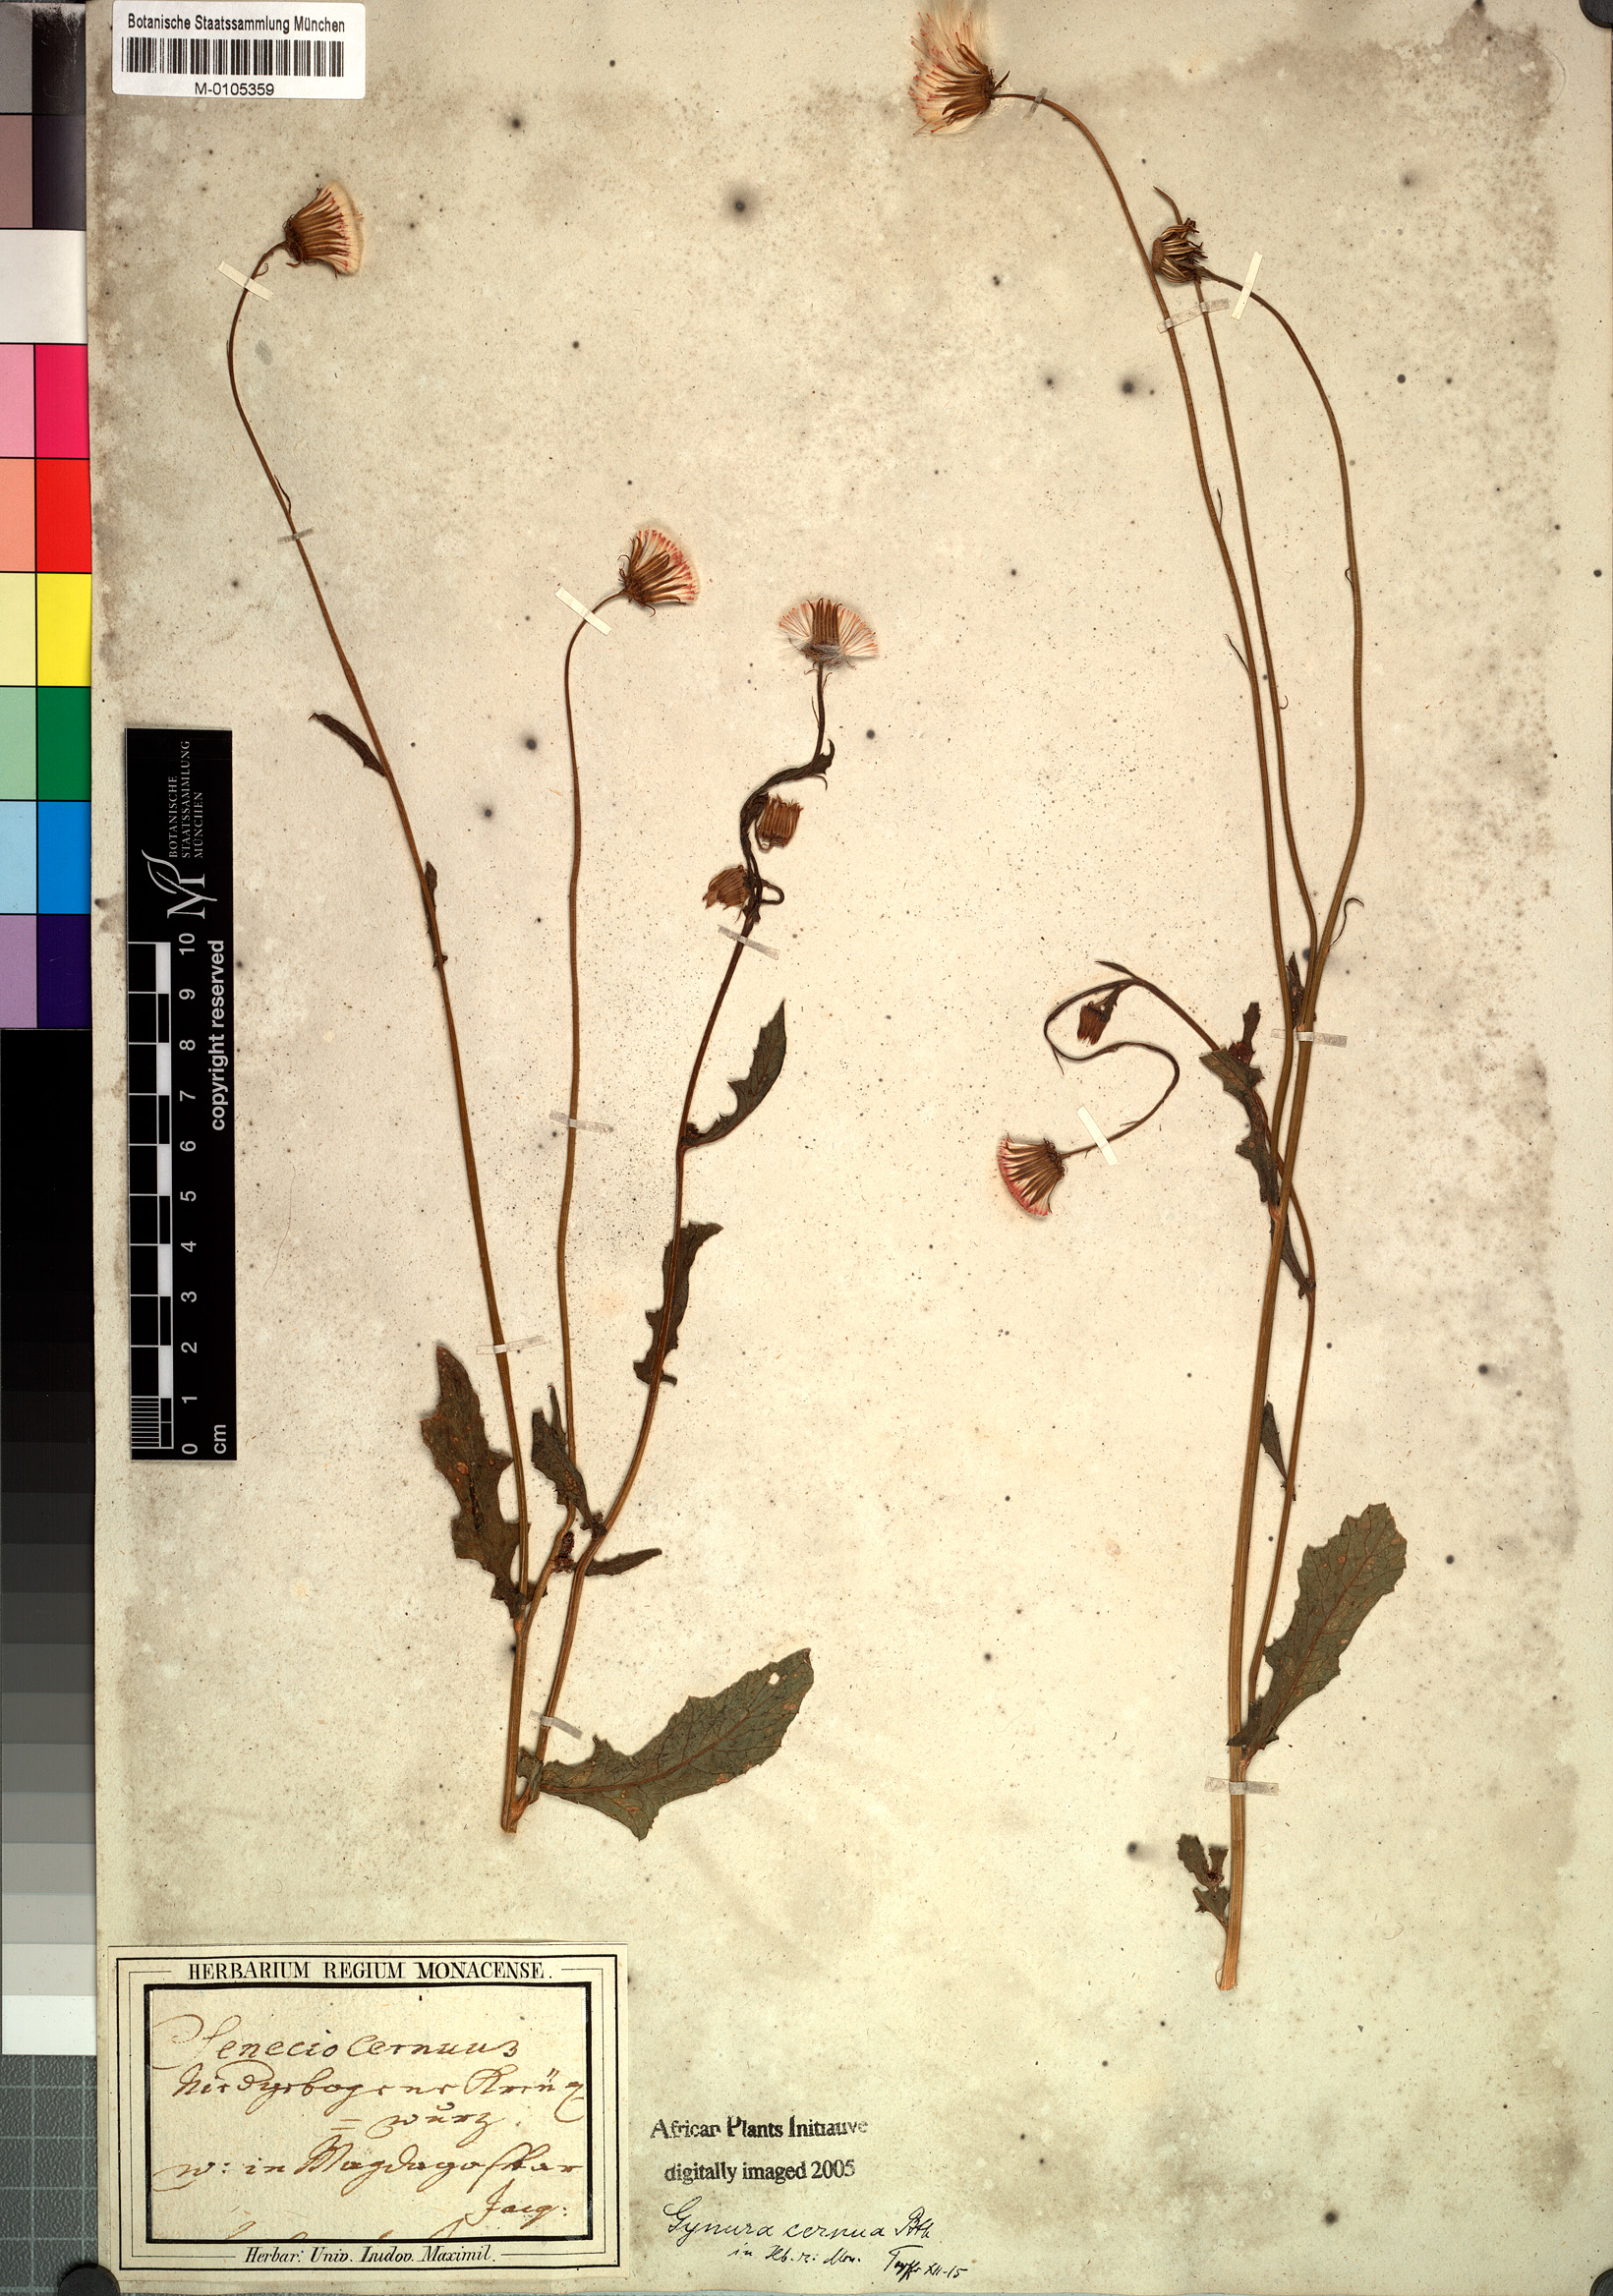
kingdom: Plantae
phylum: Tracheophyta
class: Magnoliopsida
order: Asterales
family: Asteraceae
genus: Crassocephalum
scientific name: Crassocephalum rubens
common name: Yoruban bologi
